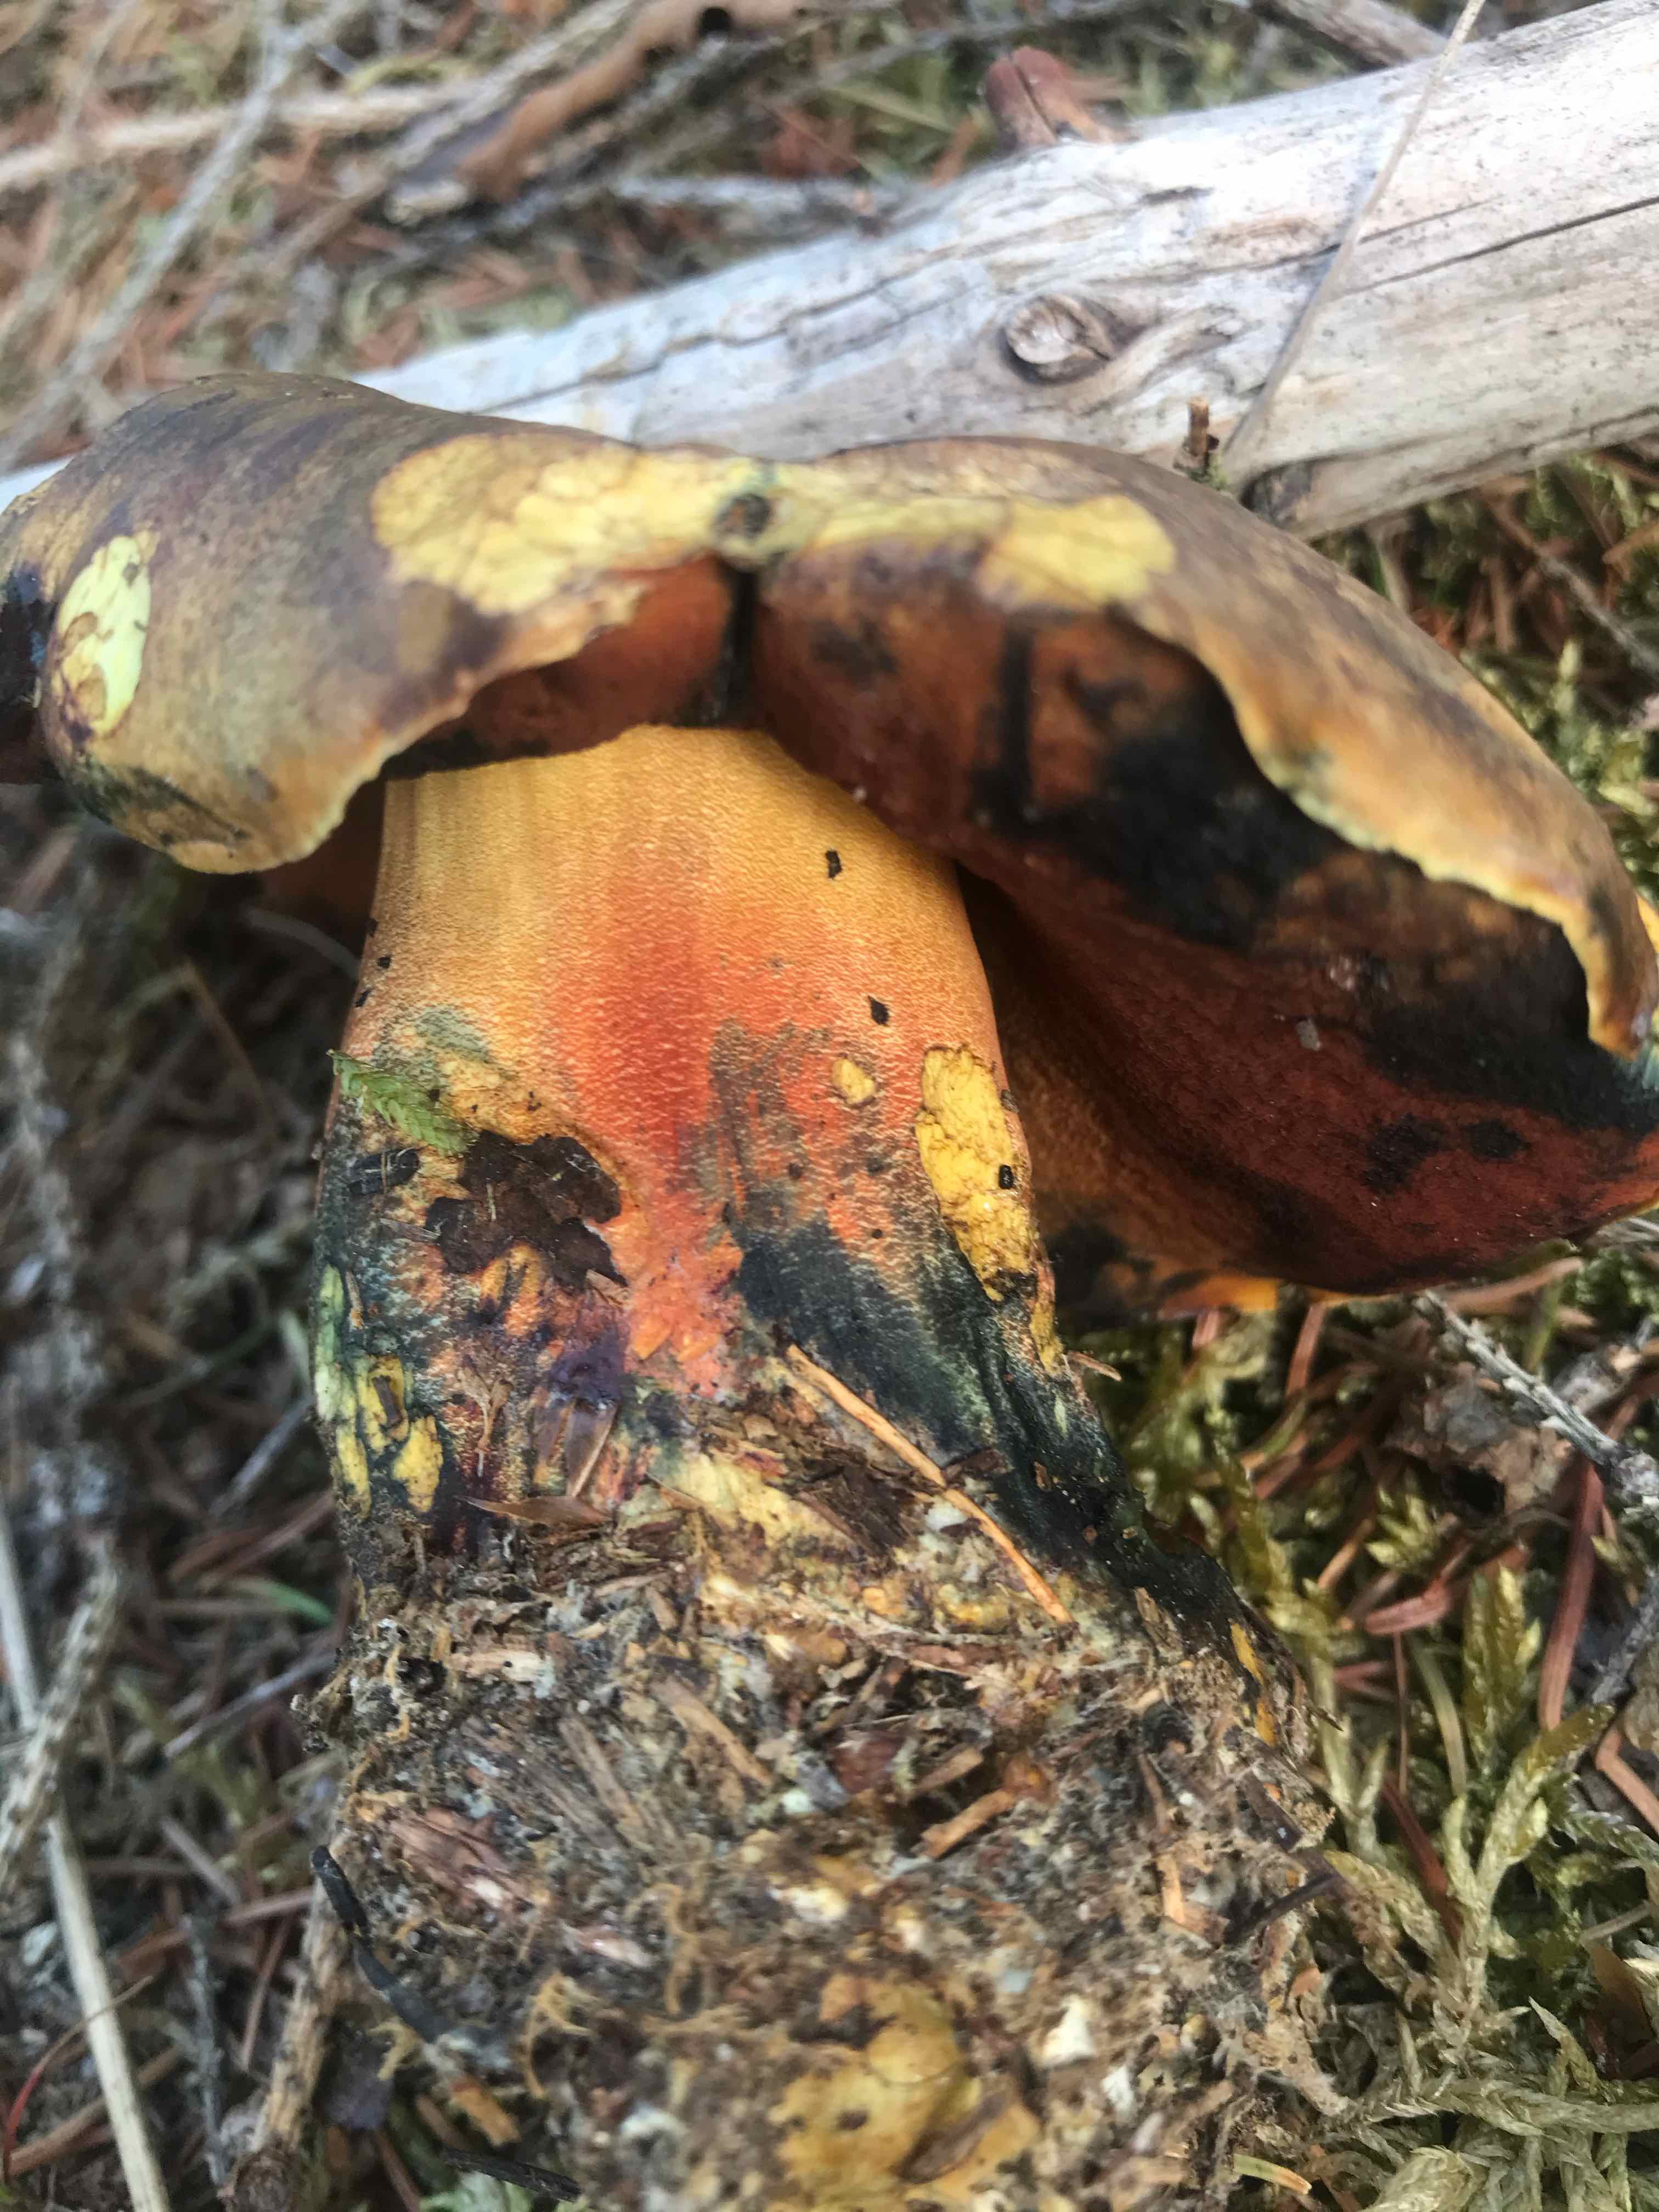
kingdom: Fungi
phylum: Basidiomycota
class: Agaricomycetes
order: Boletales
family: Boletaceae
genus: Neoboletus
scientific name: Neoboletus erythropus
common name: punktstokket indigorørhat
